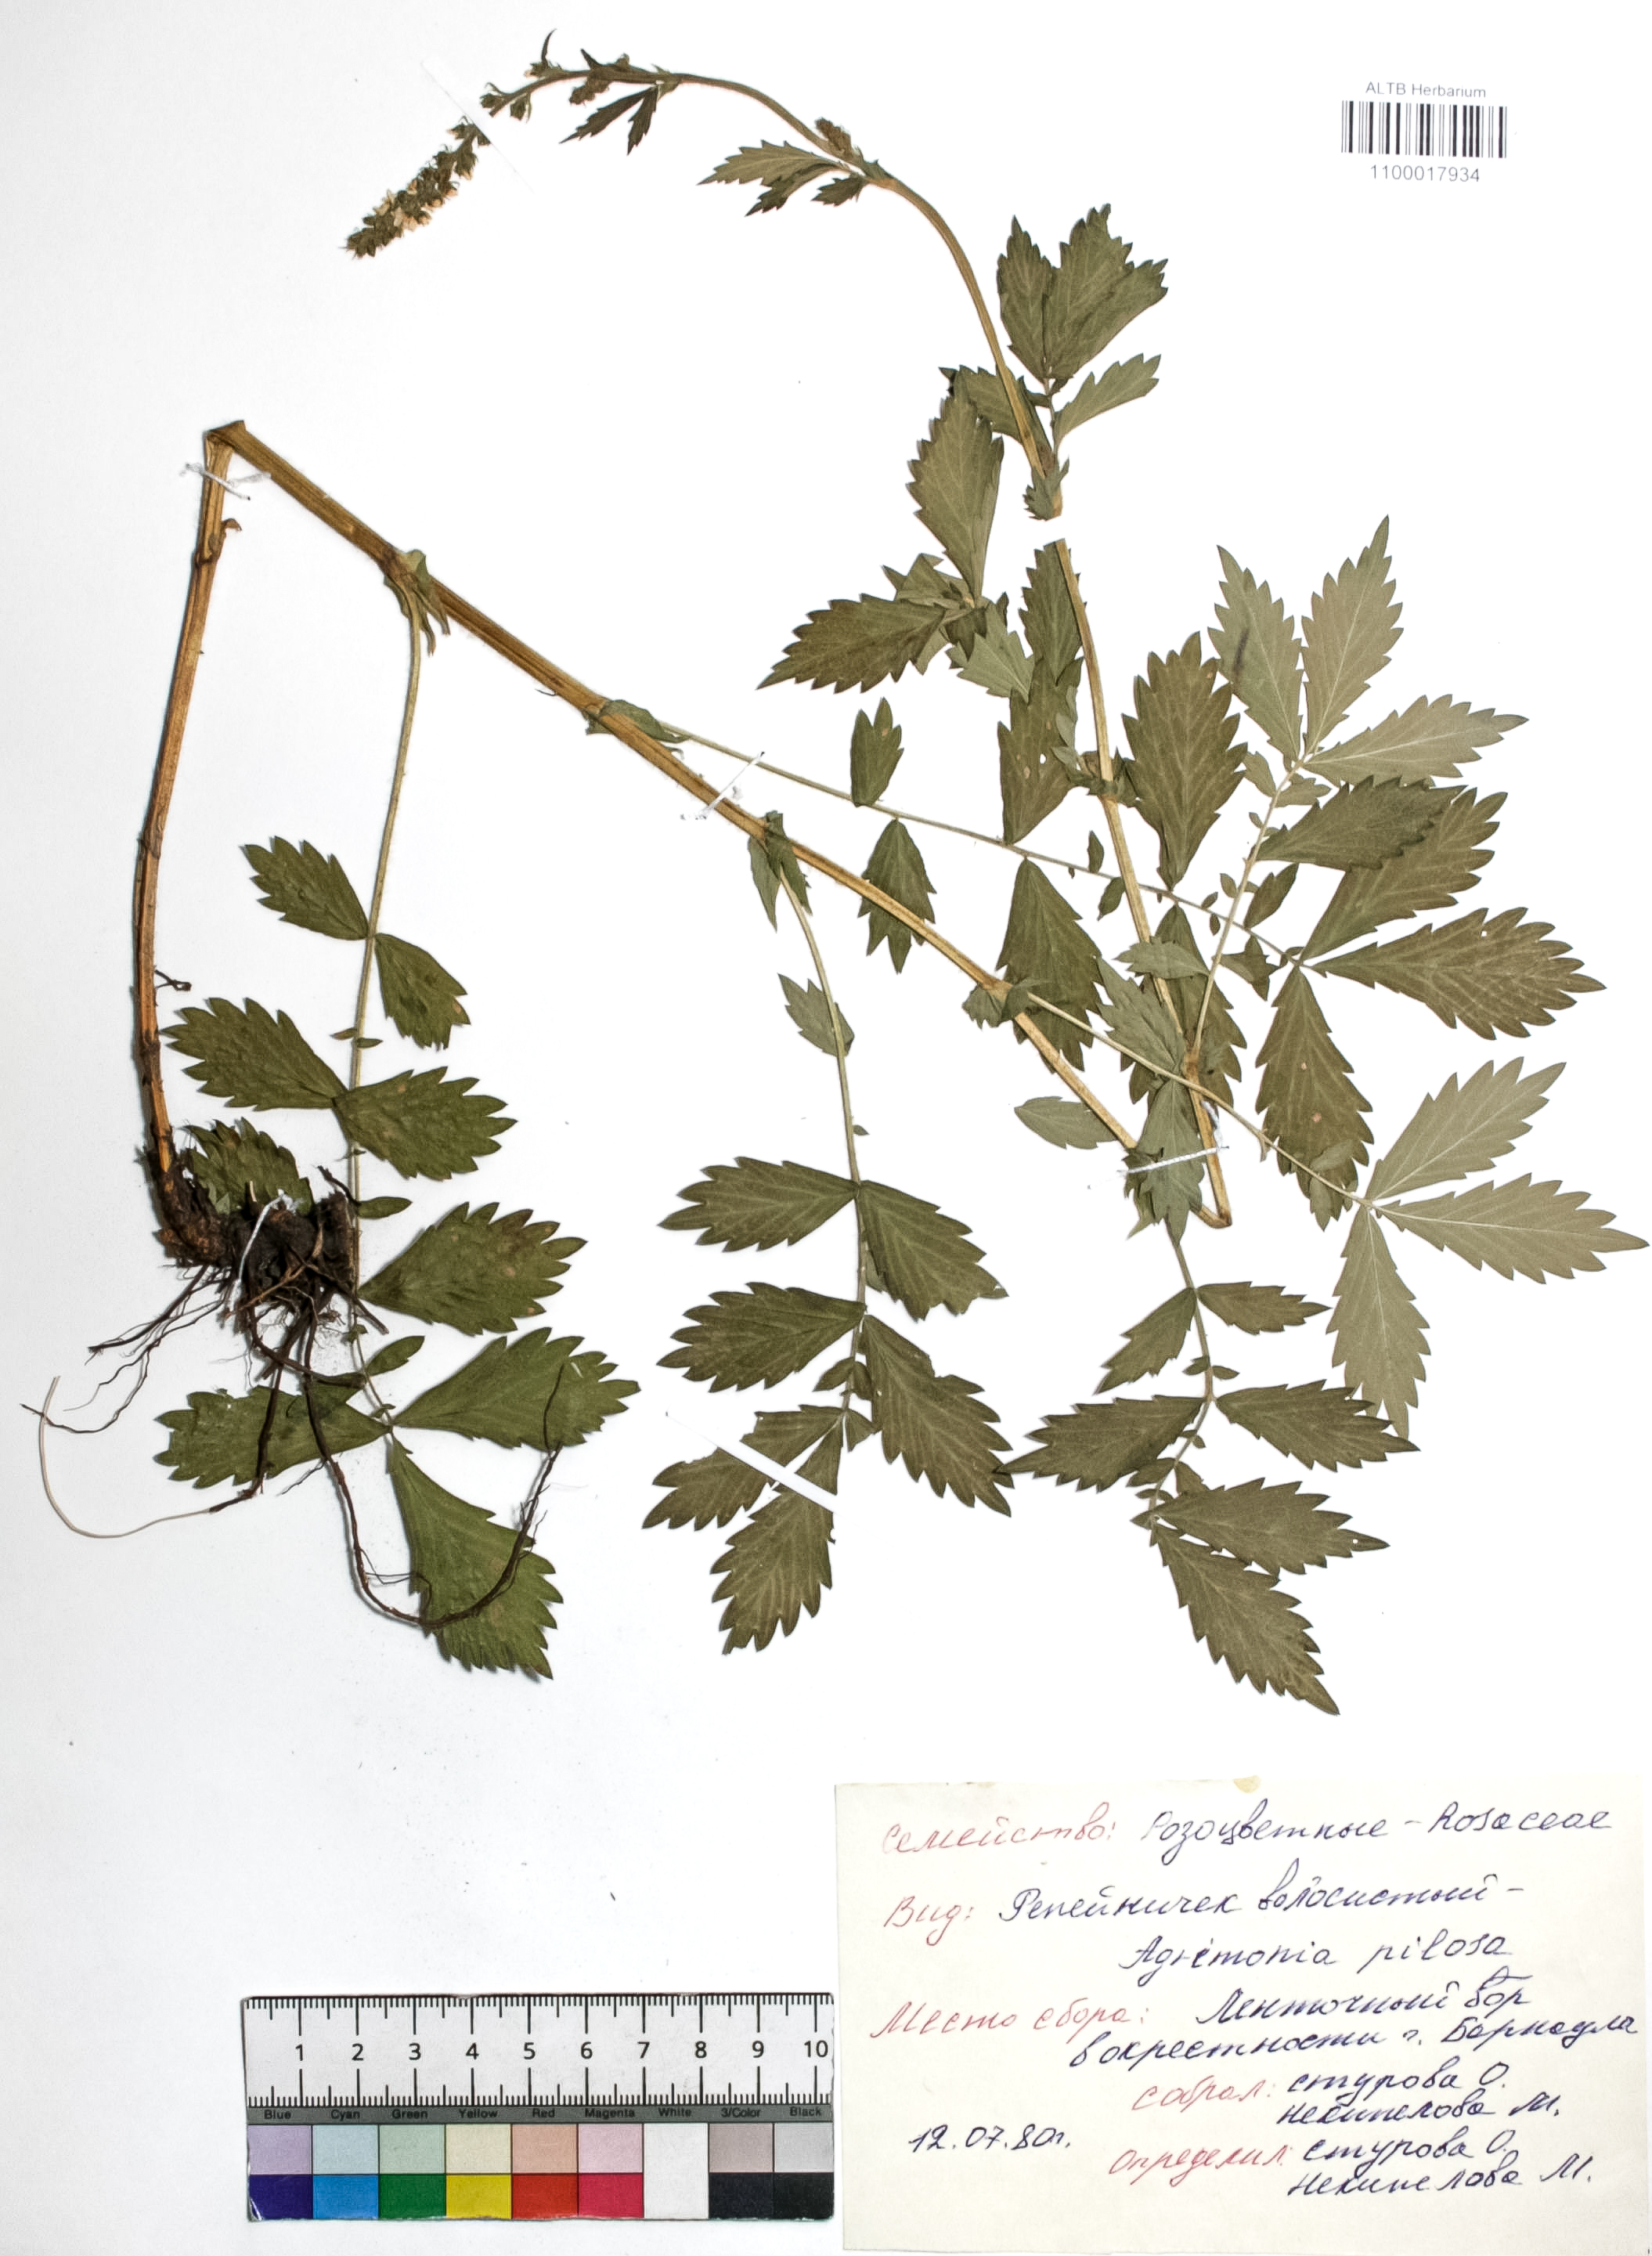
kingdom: Plantae
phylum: Tracheophyta
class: Magnoliopsida
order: Rosales
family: Rosaceae
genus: Agrimonia
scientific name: Agrimonia pilosa
